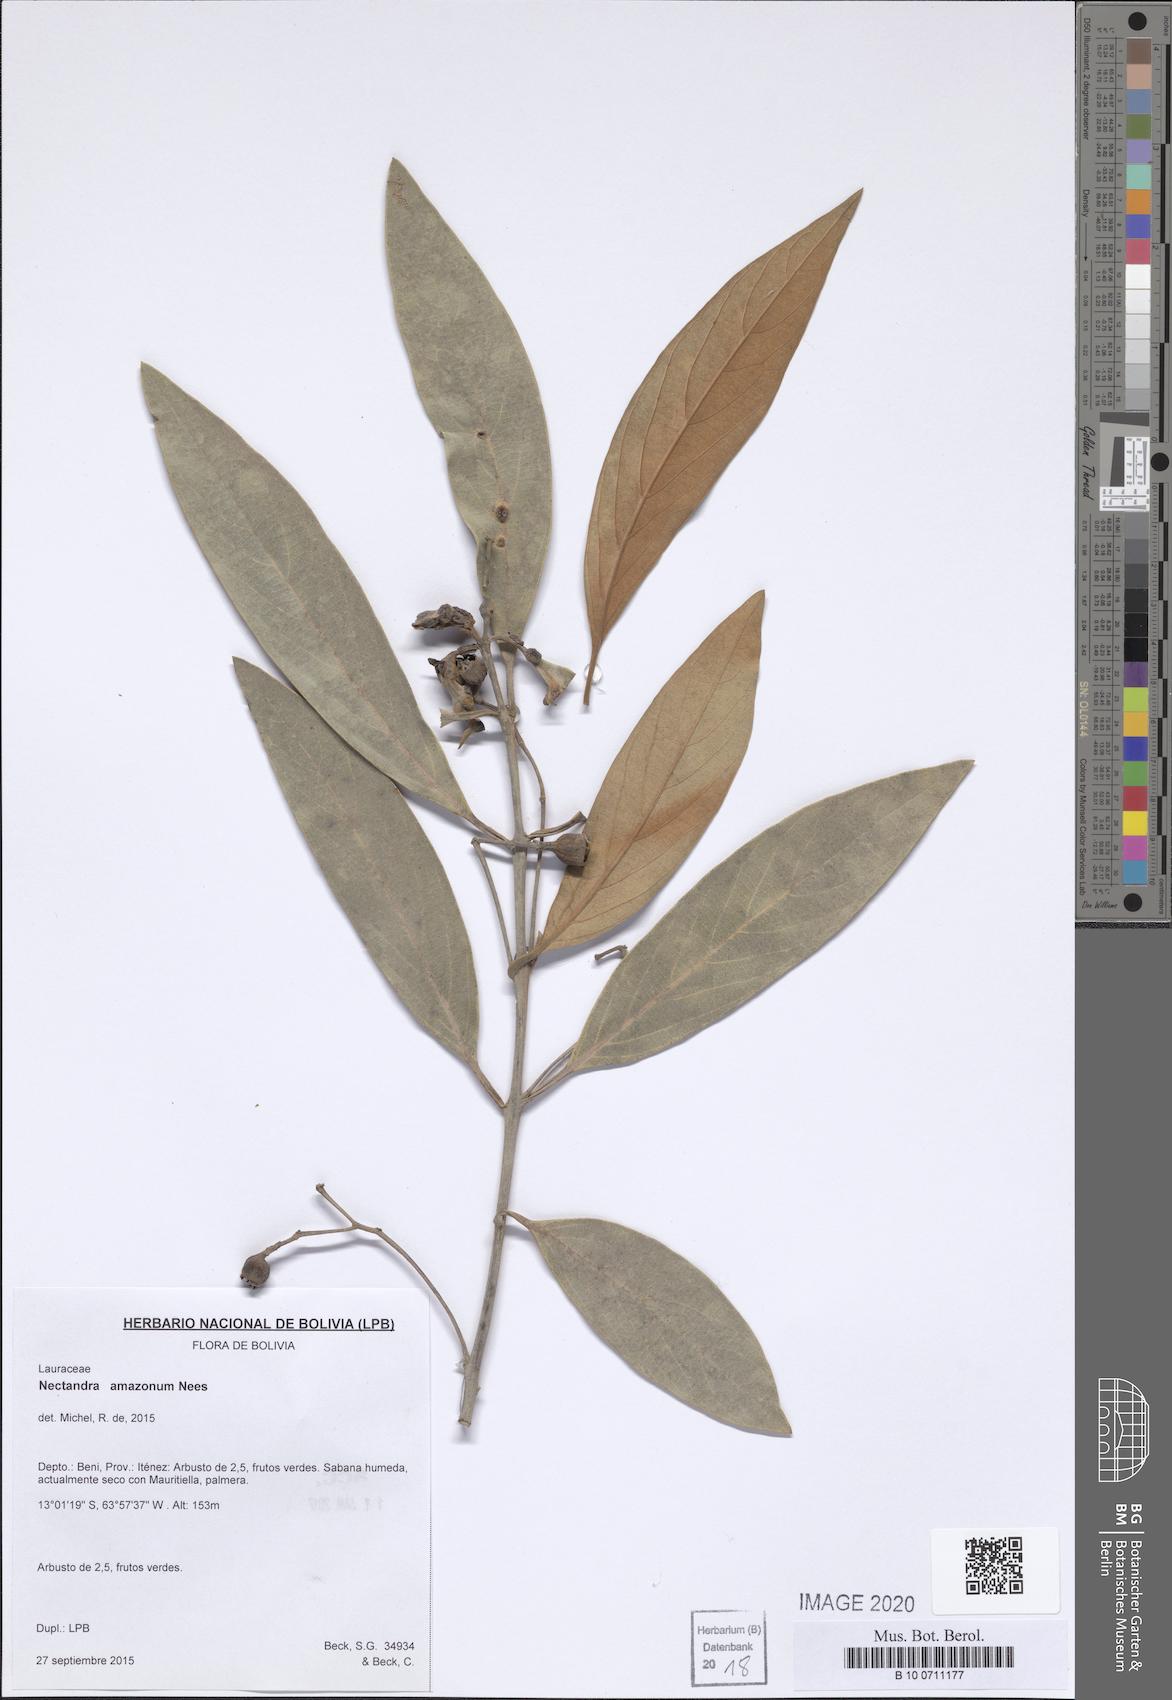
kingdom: Plantae
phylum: Tracheophyta
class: Magnoliopsida
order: Laurales
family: Lauraceae
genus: Nectandra
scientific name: Nectandra amazonum
